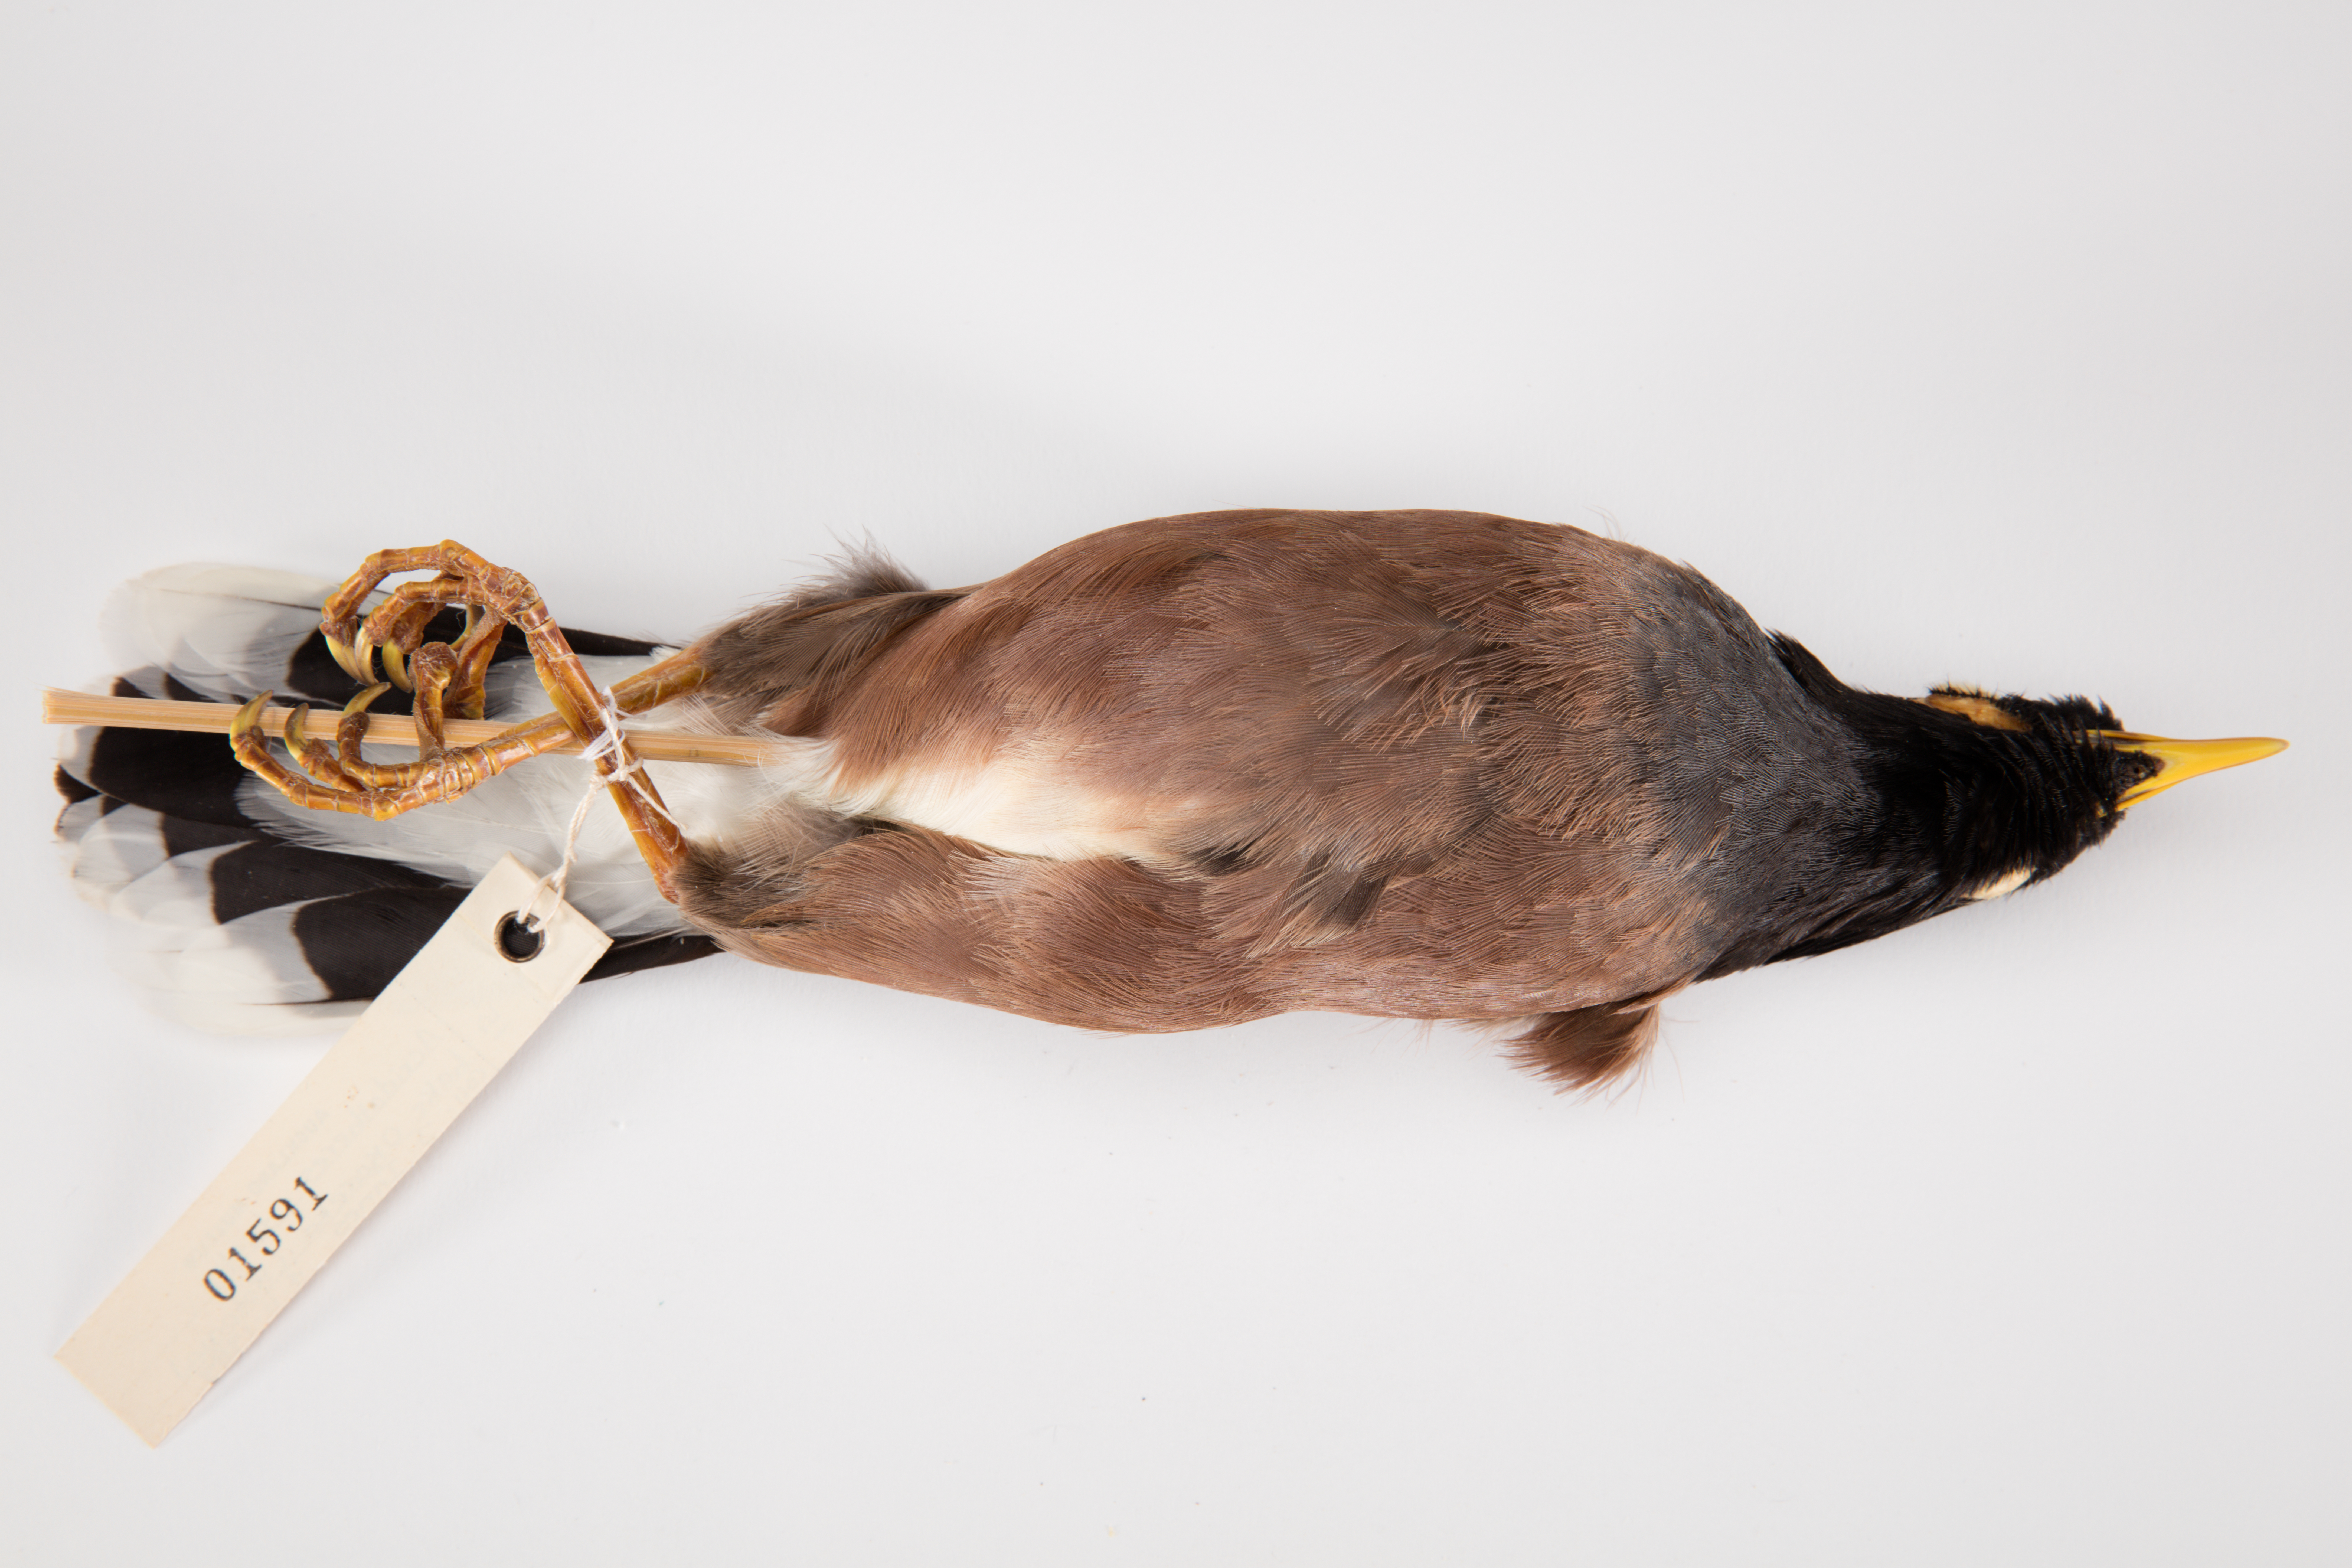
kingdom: Animalia
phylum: Chordata
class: Aves
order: Passeriformes
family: Sturnidae
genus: Acridotheres
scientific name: Acridotheres tristis
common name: Common myna
